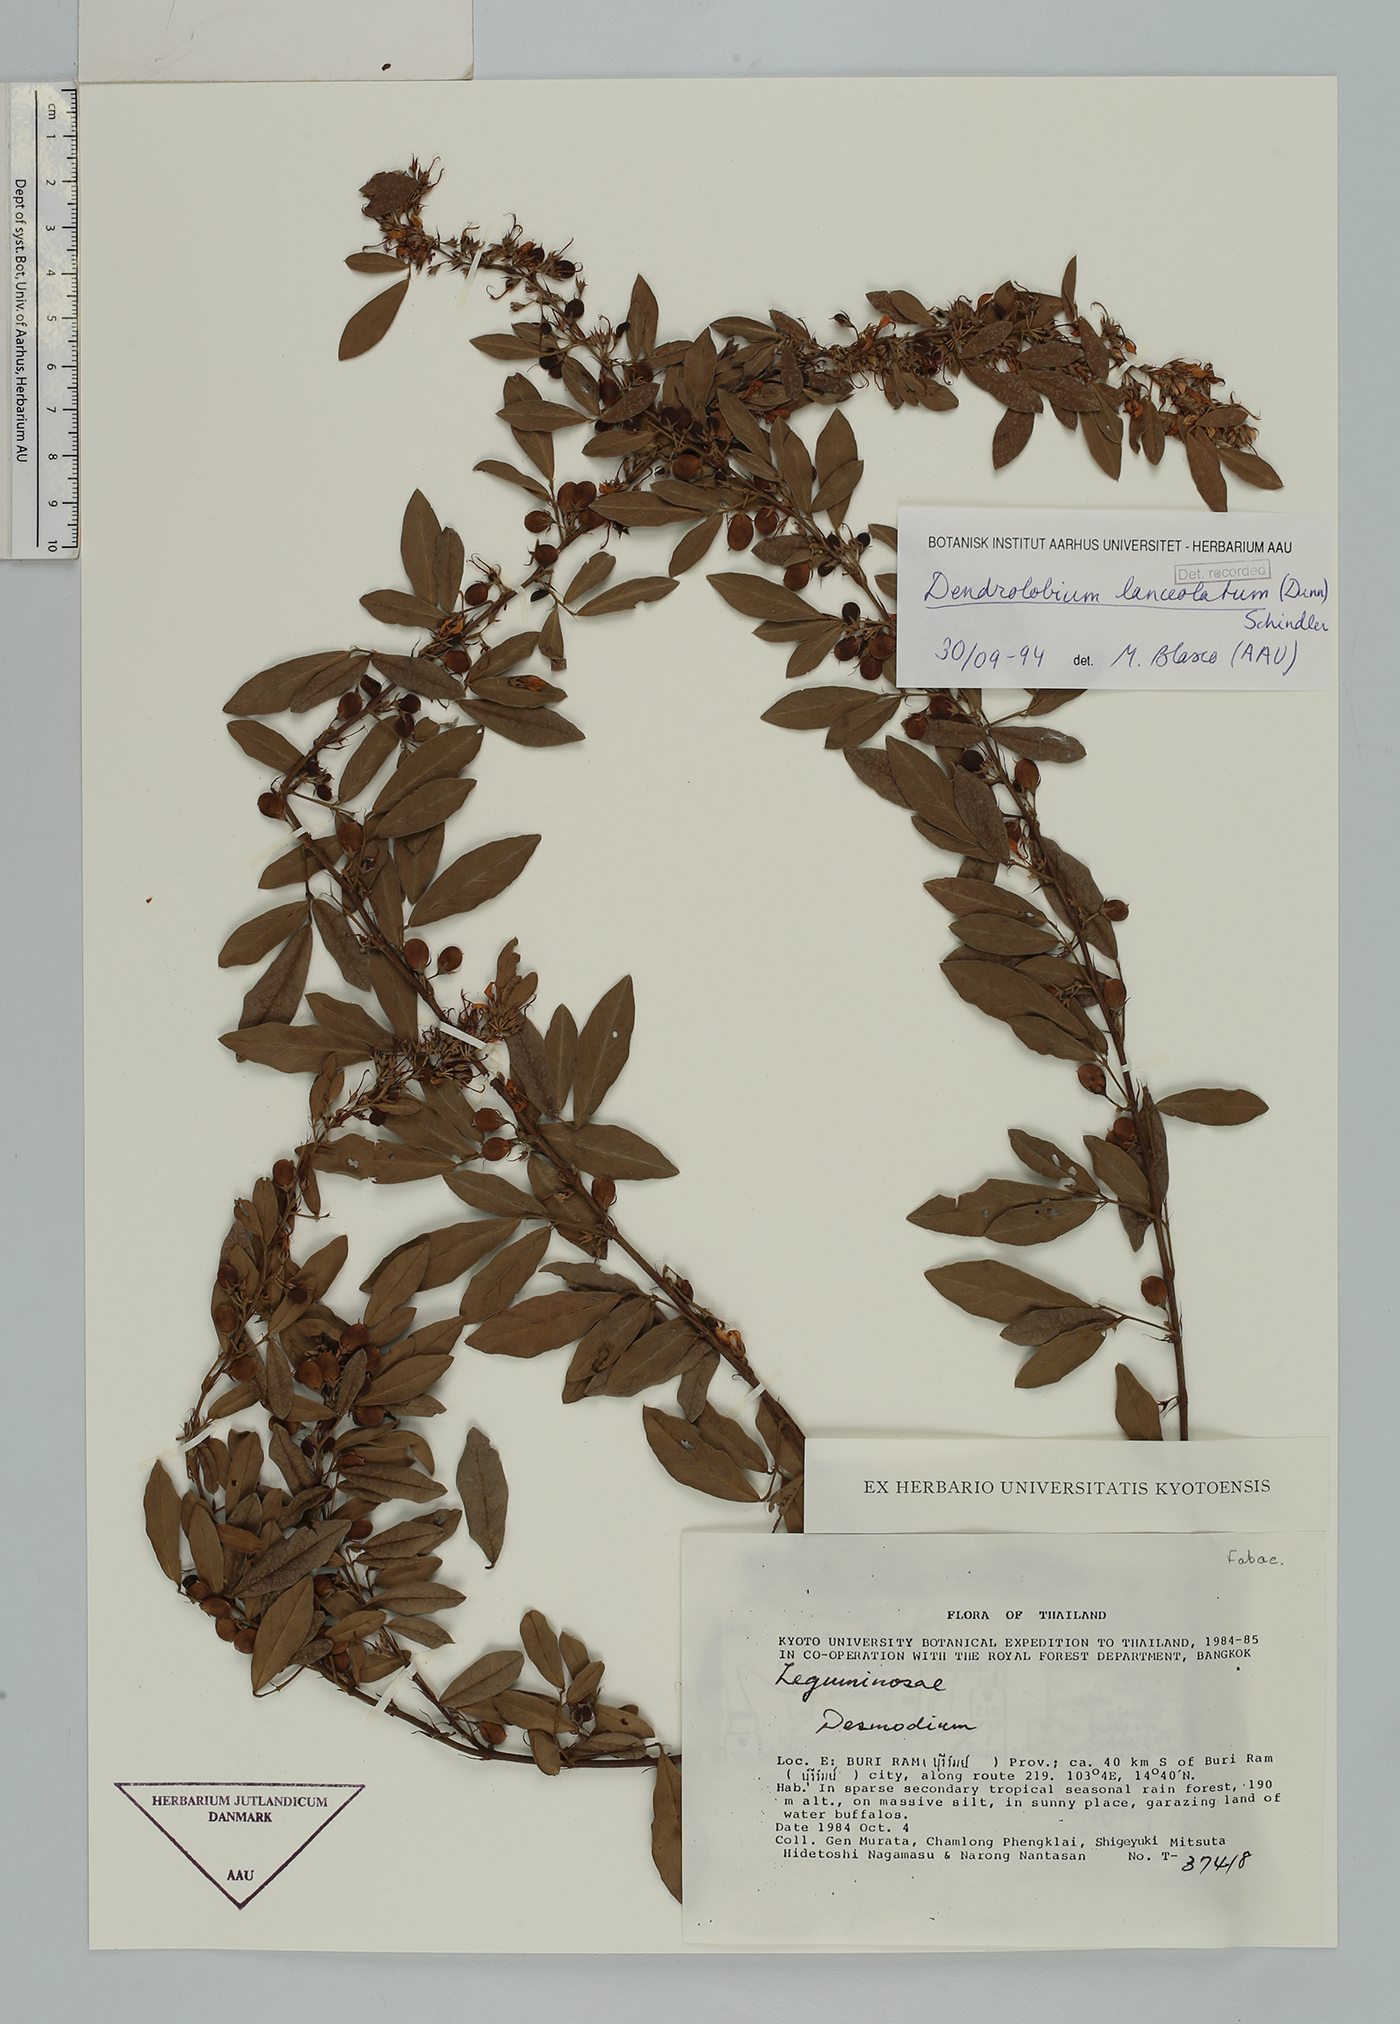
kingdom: Plantae
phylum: Tracheophyta
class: Magnoliopsida
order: Fabales
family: Fabaceae
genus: Dendrolobium
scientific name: Dendrolobium lanceolatum
